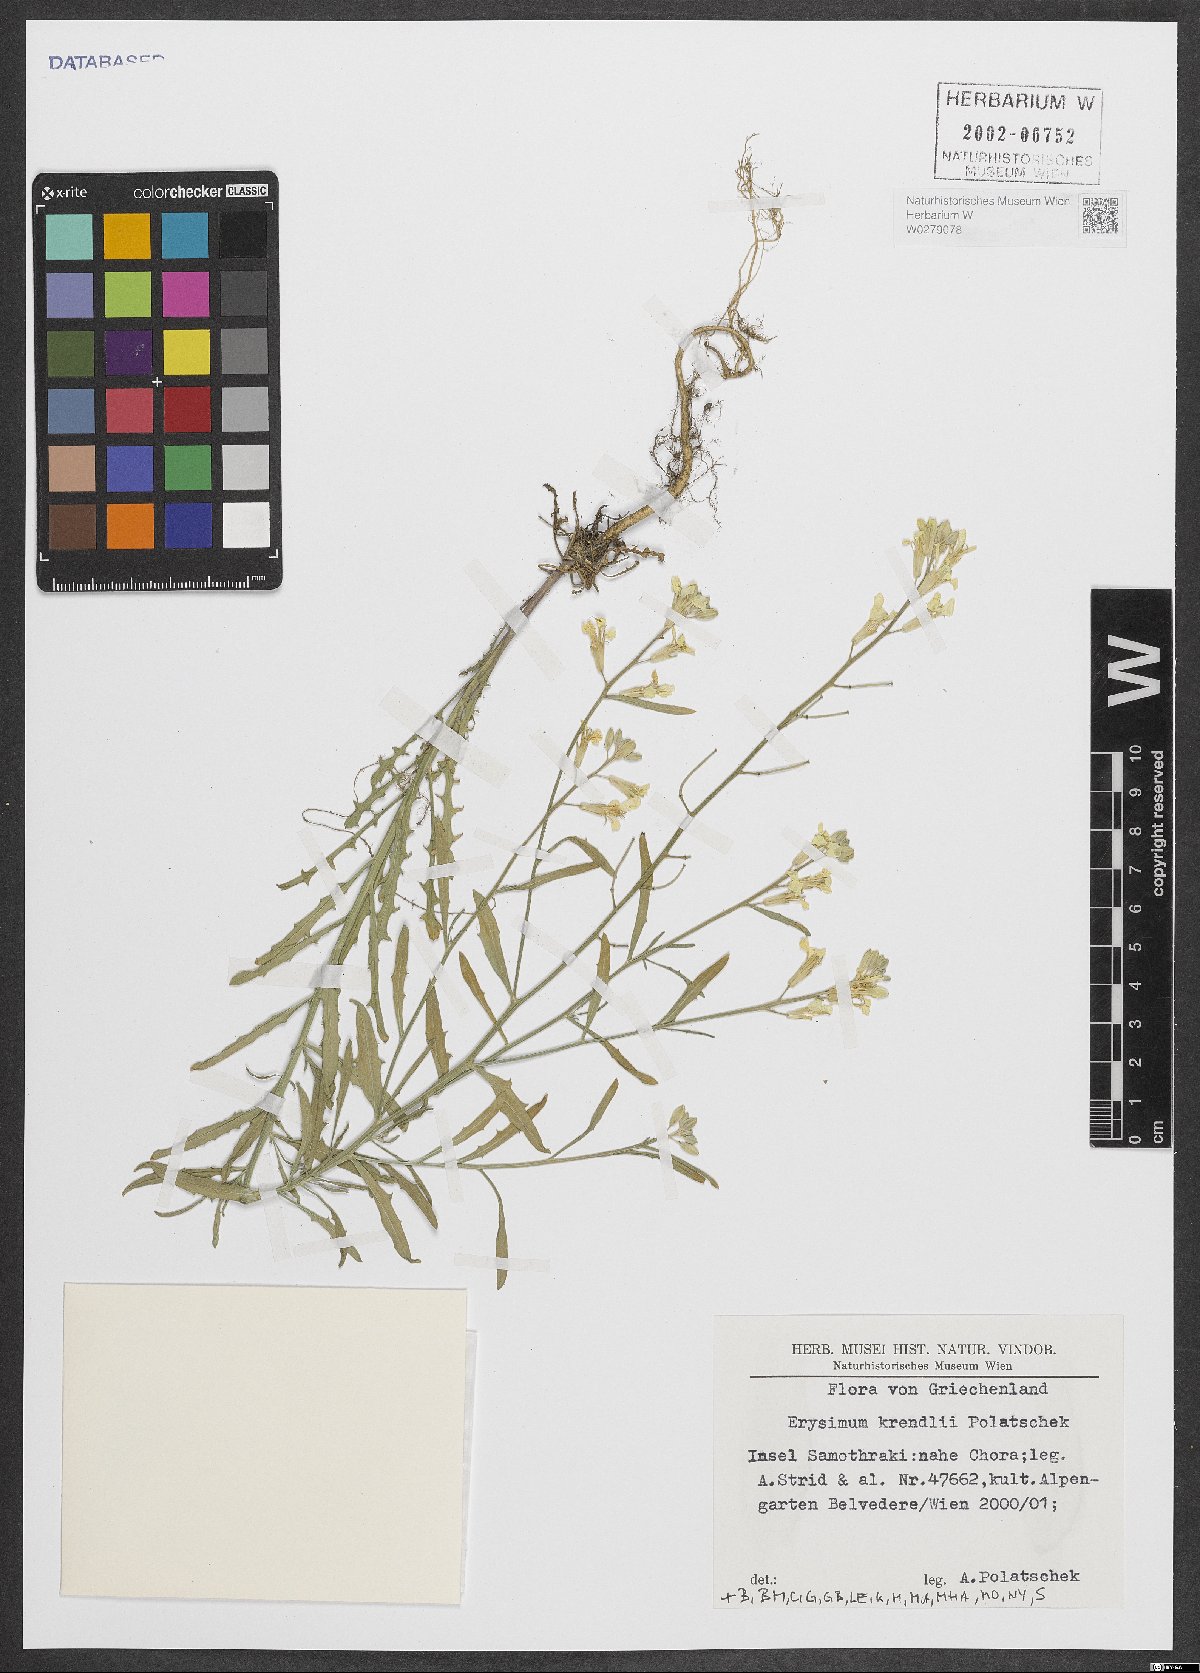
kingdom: Plantae
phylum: Tracheophyta
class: Magnoliopsida
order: Brassicales
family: Brassicaceae
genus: Erysimum
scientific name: Erysimum krendlii
